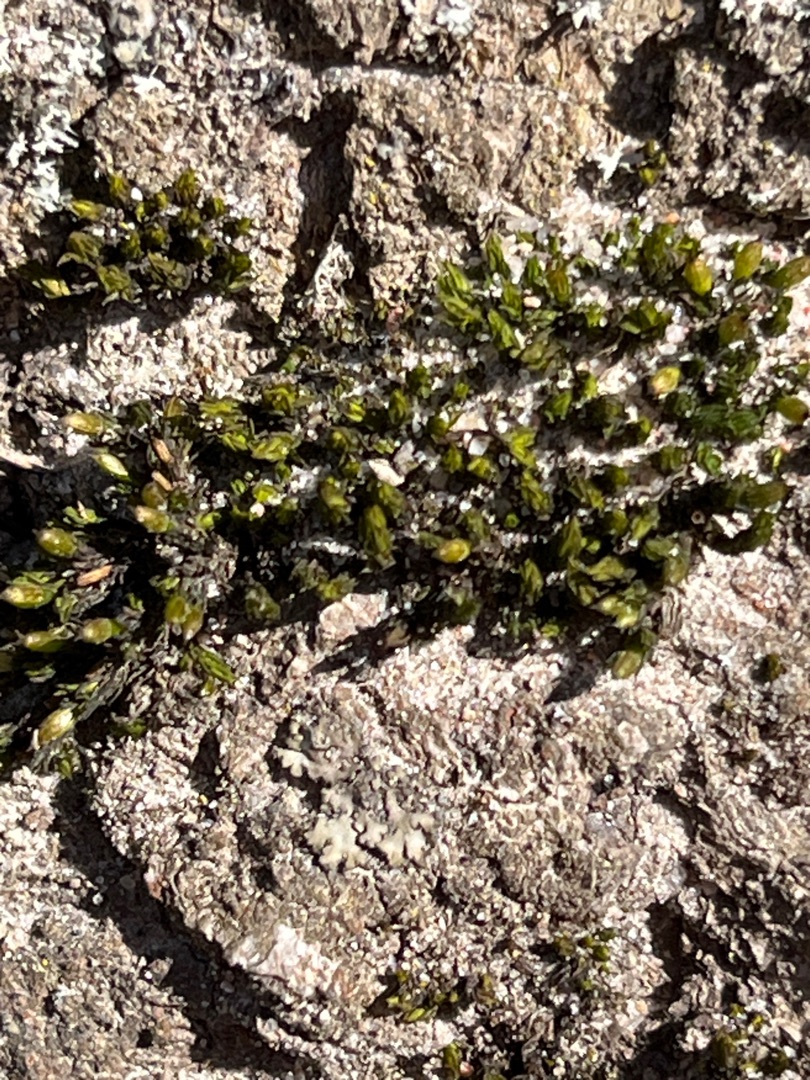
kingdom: Animalia
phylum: Chordata
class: Aves
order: Passeriformes
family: Paridae
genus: Parus
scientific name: Parus major
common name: Musvit
